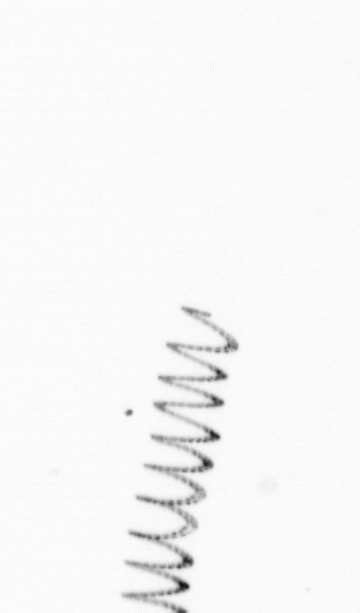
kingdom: Chromista
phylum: Ochrophyta
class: Bacillariophyceae
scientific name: Bacillariophyceae
